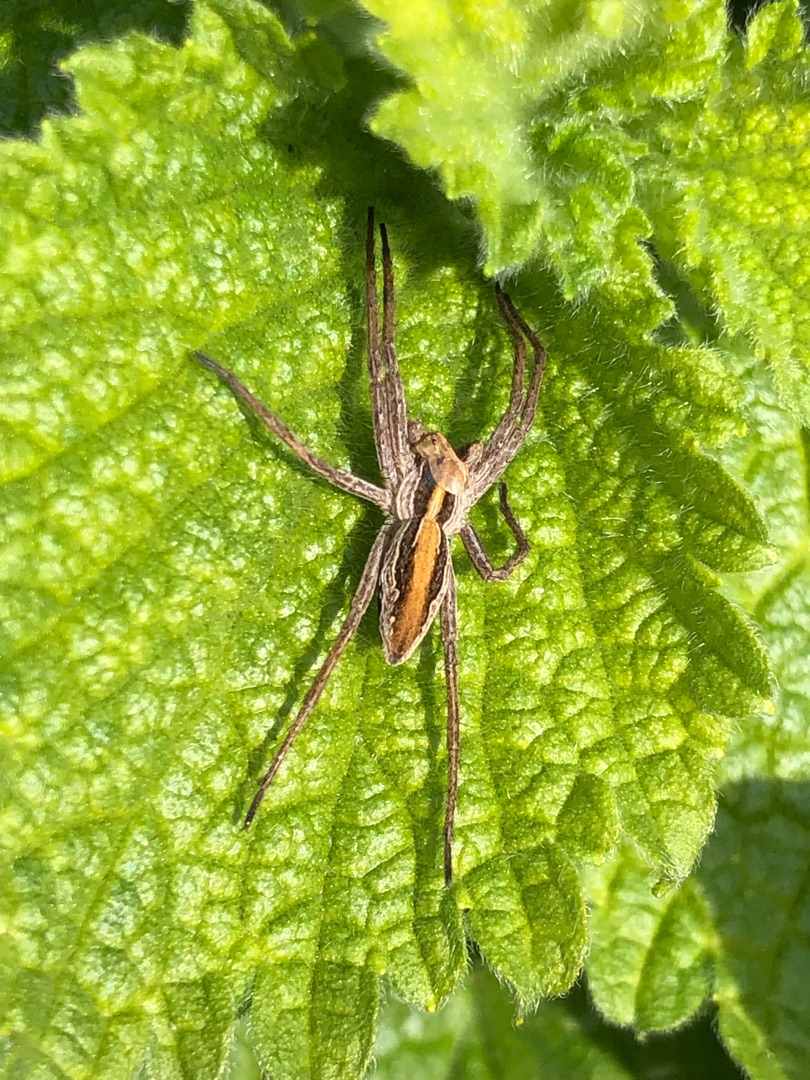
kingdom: Animalia
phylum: Arthropoda
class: Arachnida
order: Araneae
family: Pisauridae
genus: Pisaura
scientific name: Pisaura mirabilis
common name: Almindelig rovedderkop
